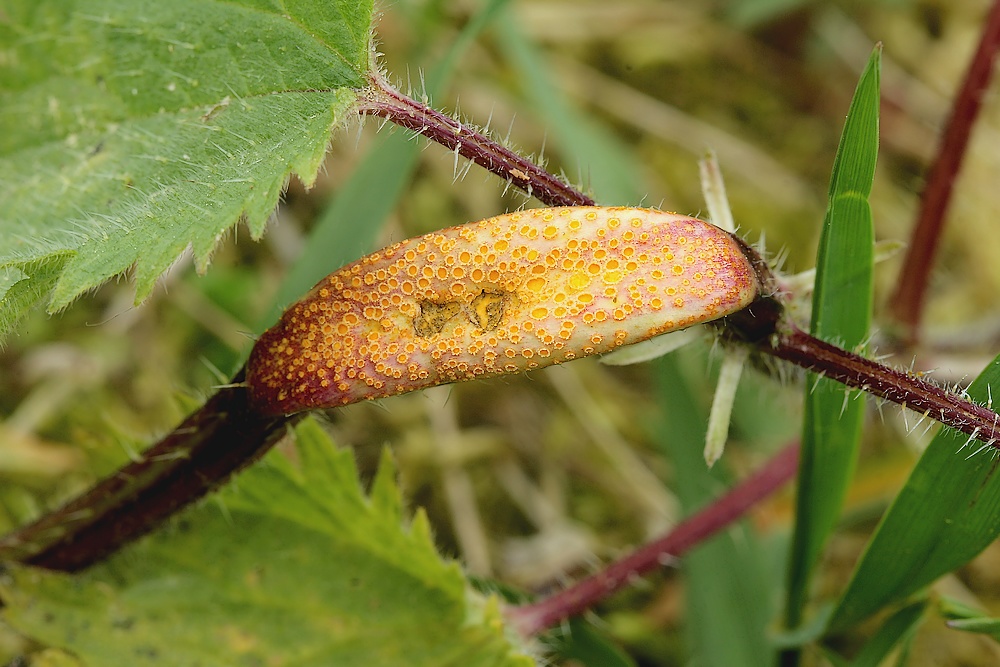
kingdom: Fungi
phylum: Basidiomycota
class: Pucciniomycetes
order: Pucciniales
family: Pucciniaceae
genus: Puccinia
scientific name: Puccinia urticata
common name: nældegalle-tvecellerust
